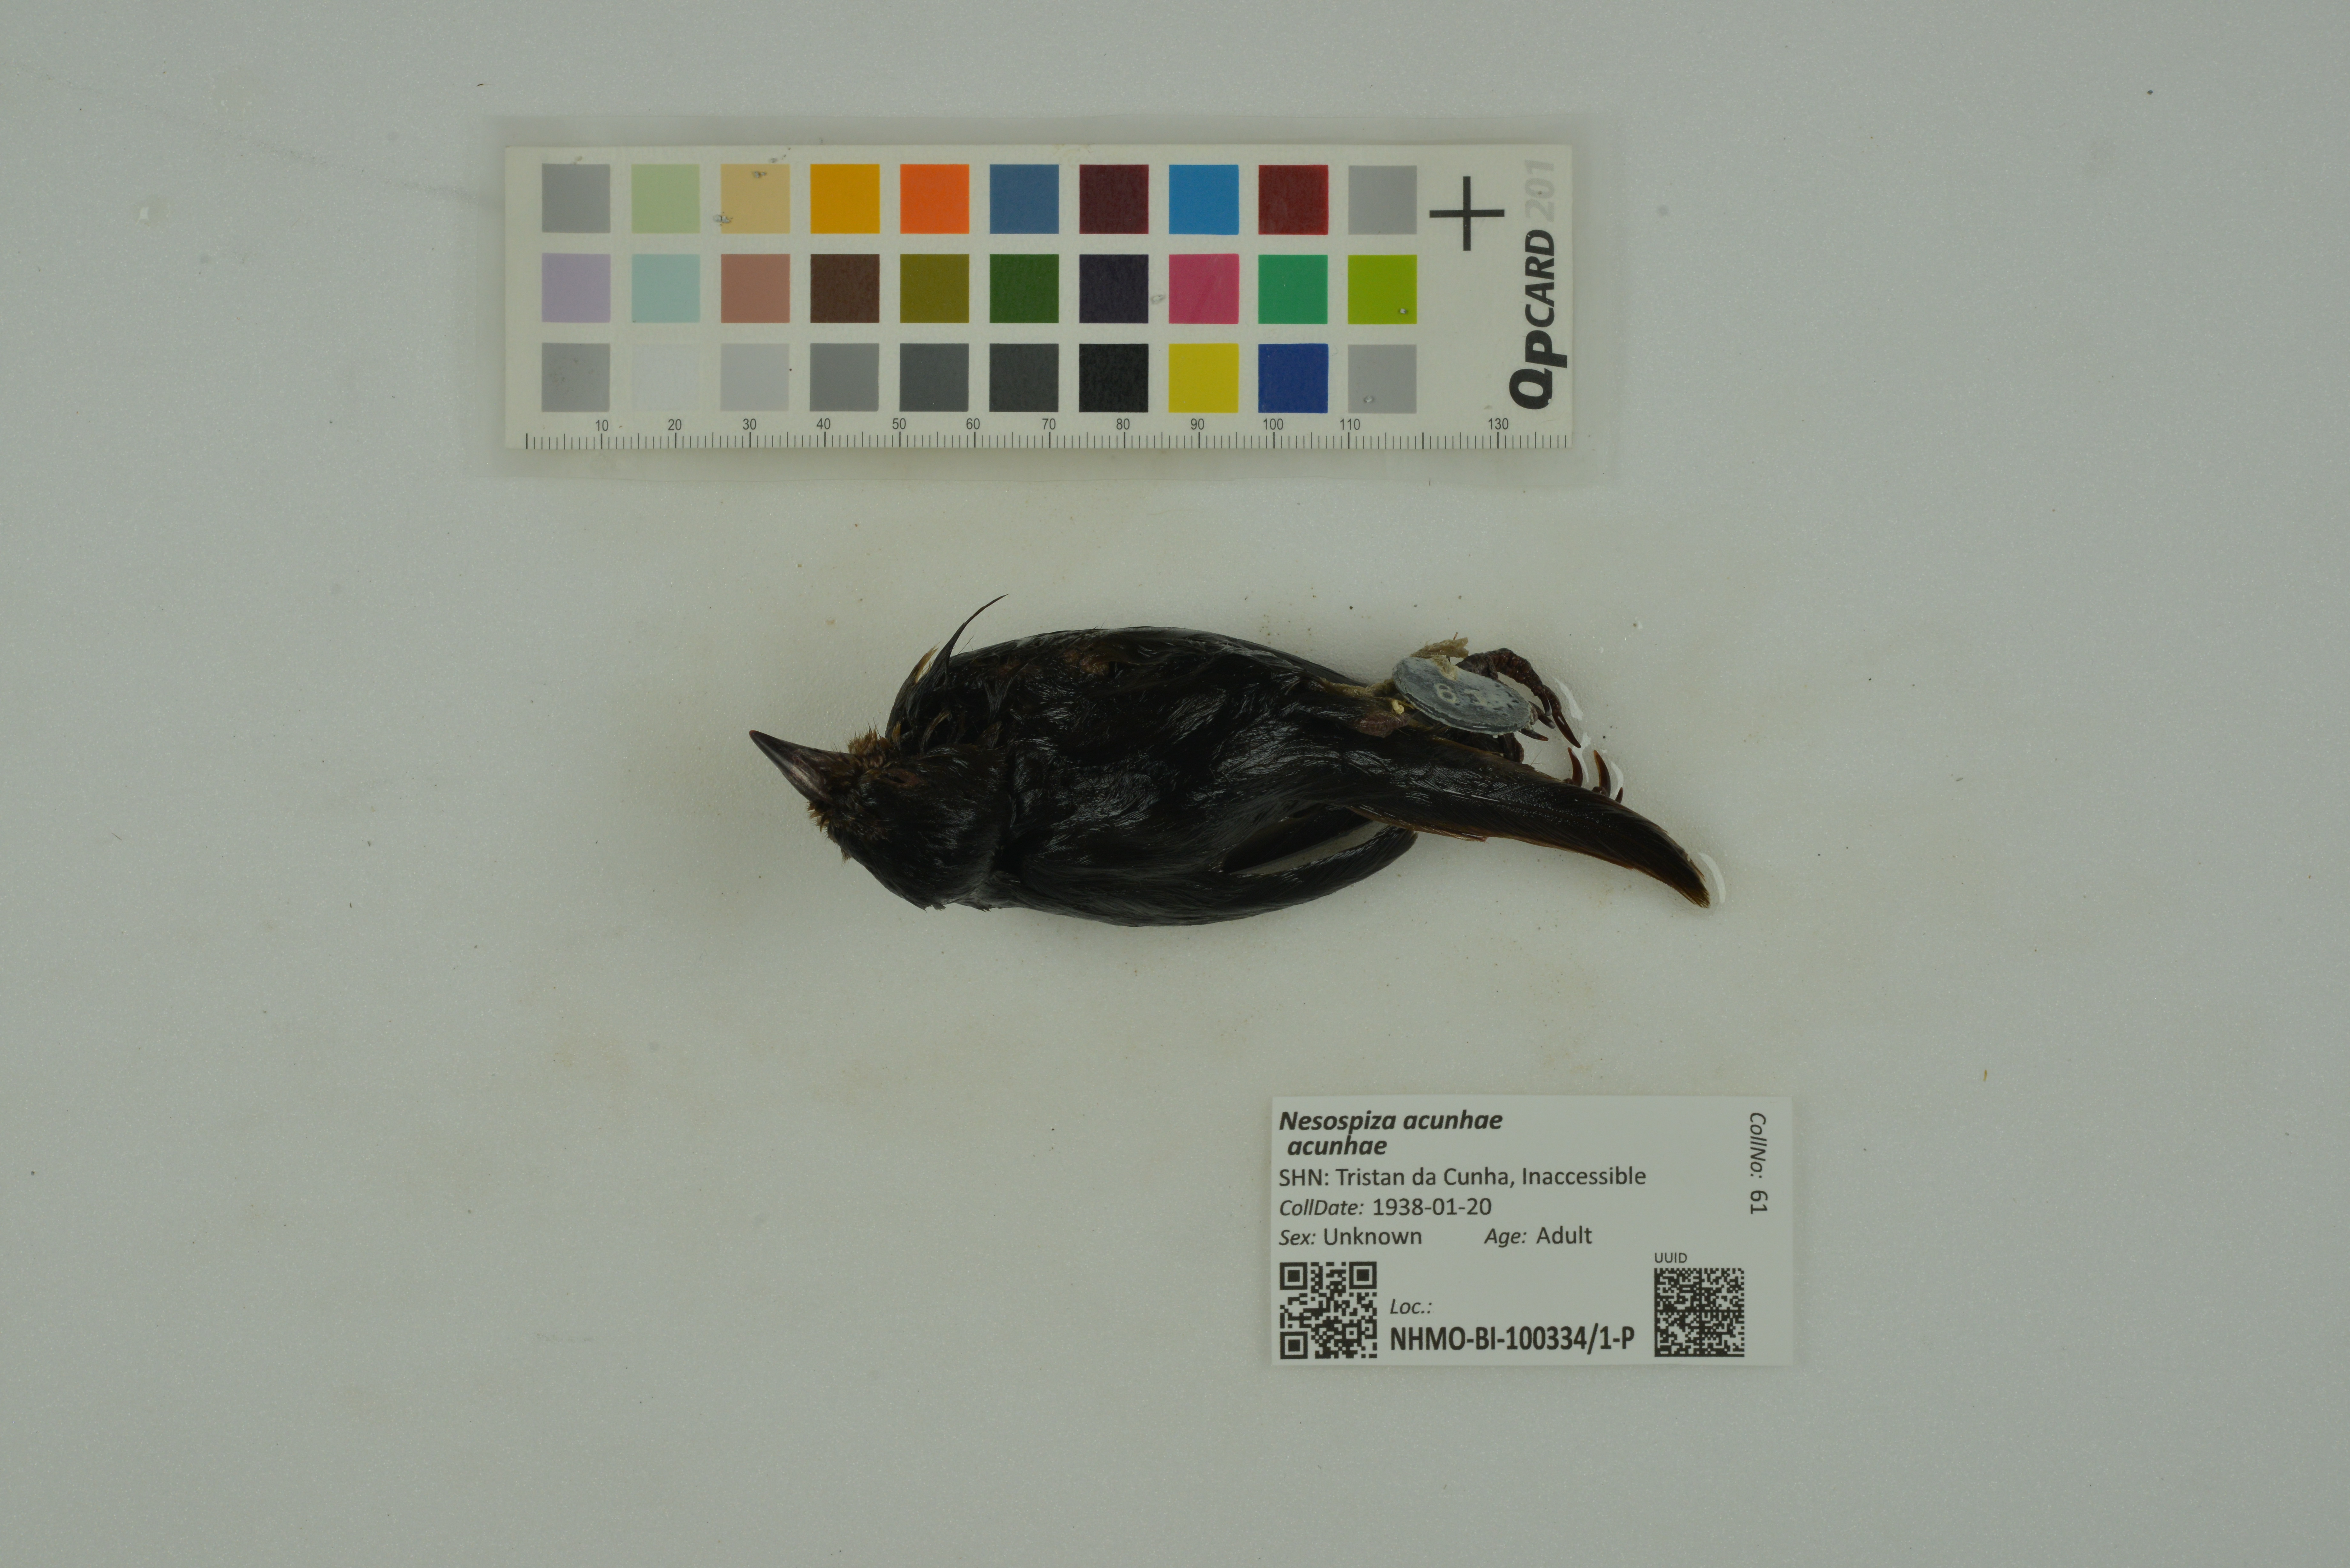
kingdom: Animalia
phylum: Chordata
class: Aves
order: Passeriformes
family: Thraupidae
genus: Nesospiza
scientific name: Nesospiza acunhae
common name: Inaccessible island finch
